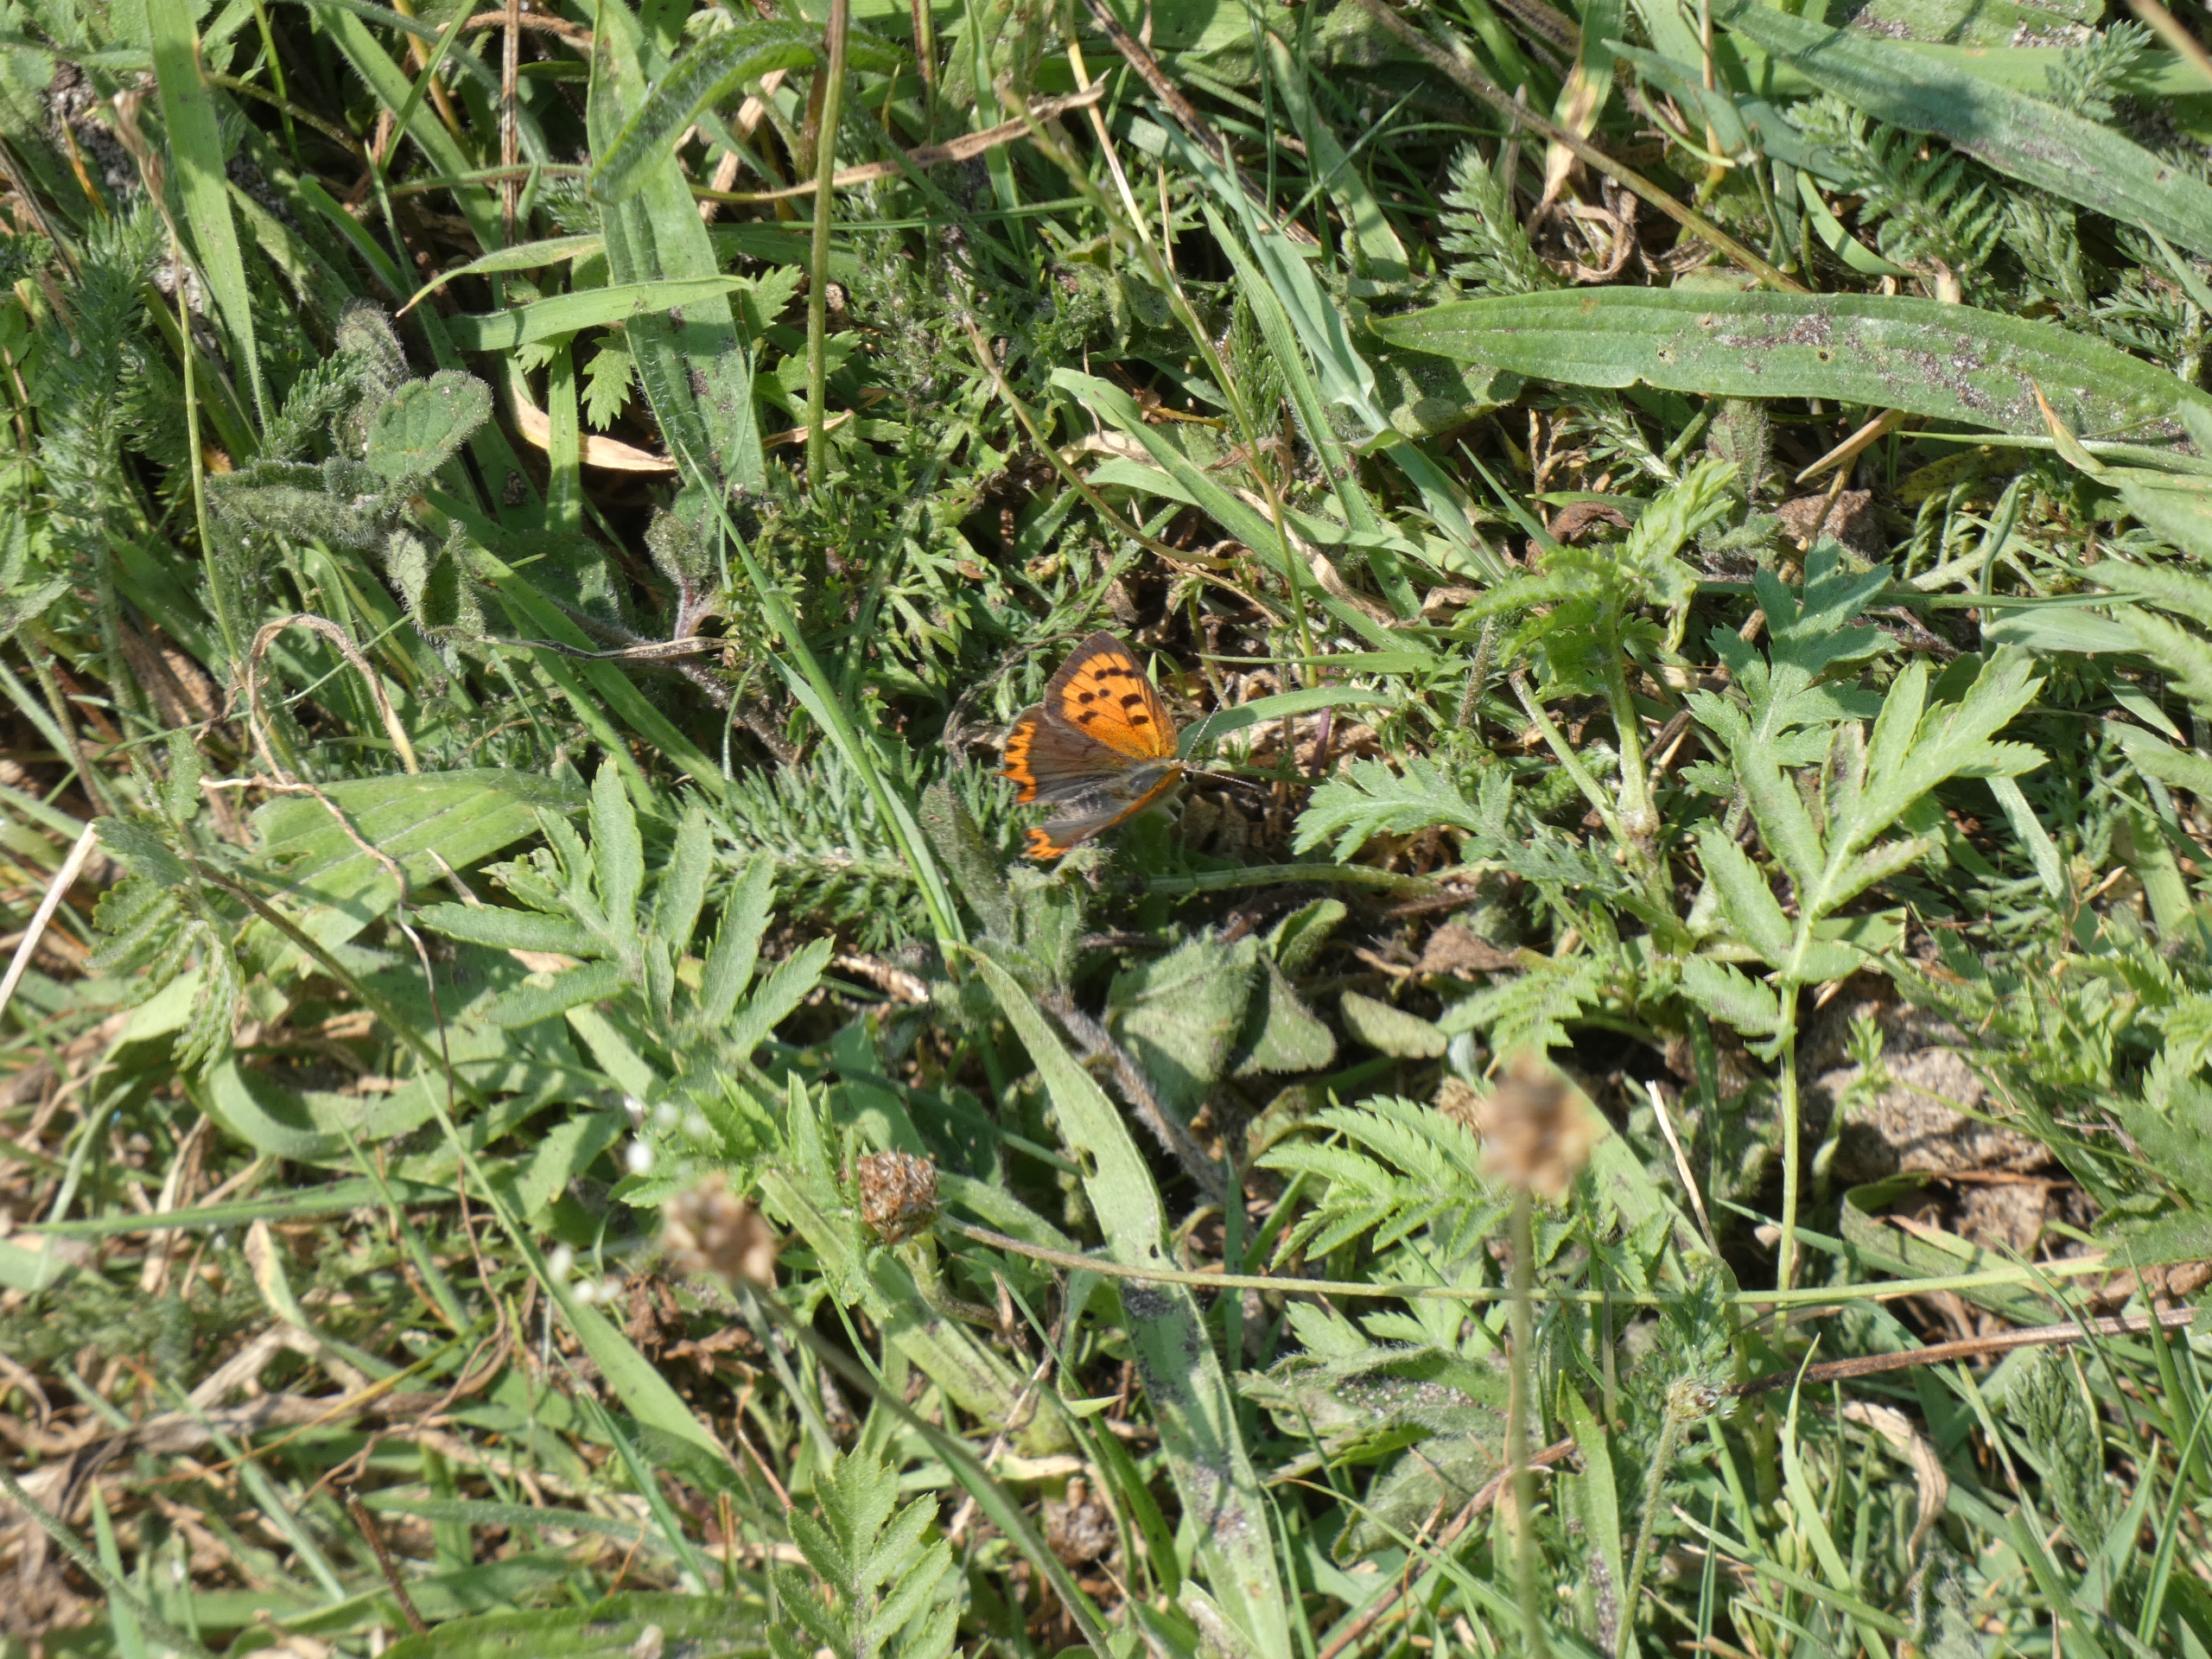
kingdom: Animalia
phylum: Arthropoda
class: Insecta
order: Lepidoptera
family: Lycaenidae
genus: Lycaena
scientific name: Lycaena phlaeas
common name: Lille ildfugl
